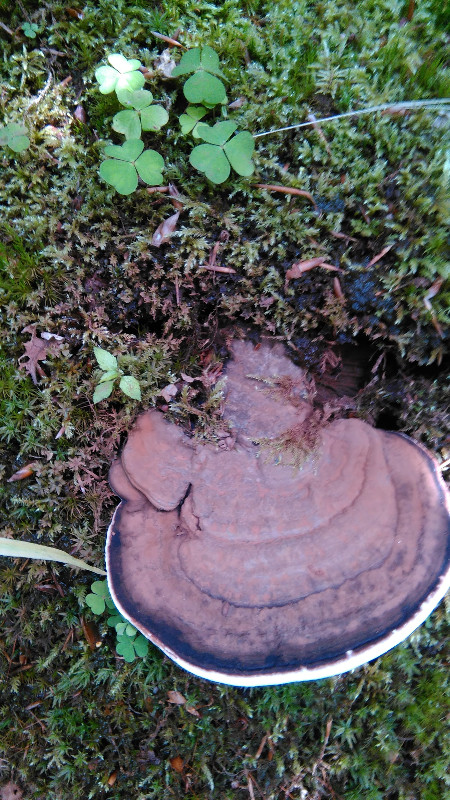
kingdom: Fungi
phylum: Basidiomycota
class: Agaricomycetes
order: Polyporales
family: Polyporaceae
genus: Ganoderma
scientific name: Ganoderma applanatum
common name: flad lakporesvamp
